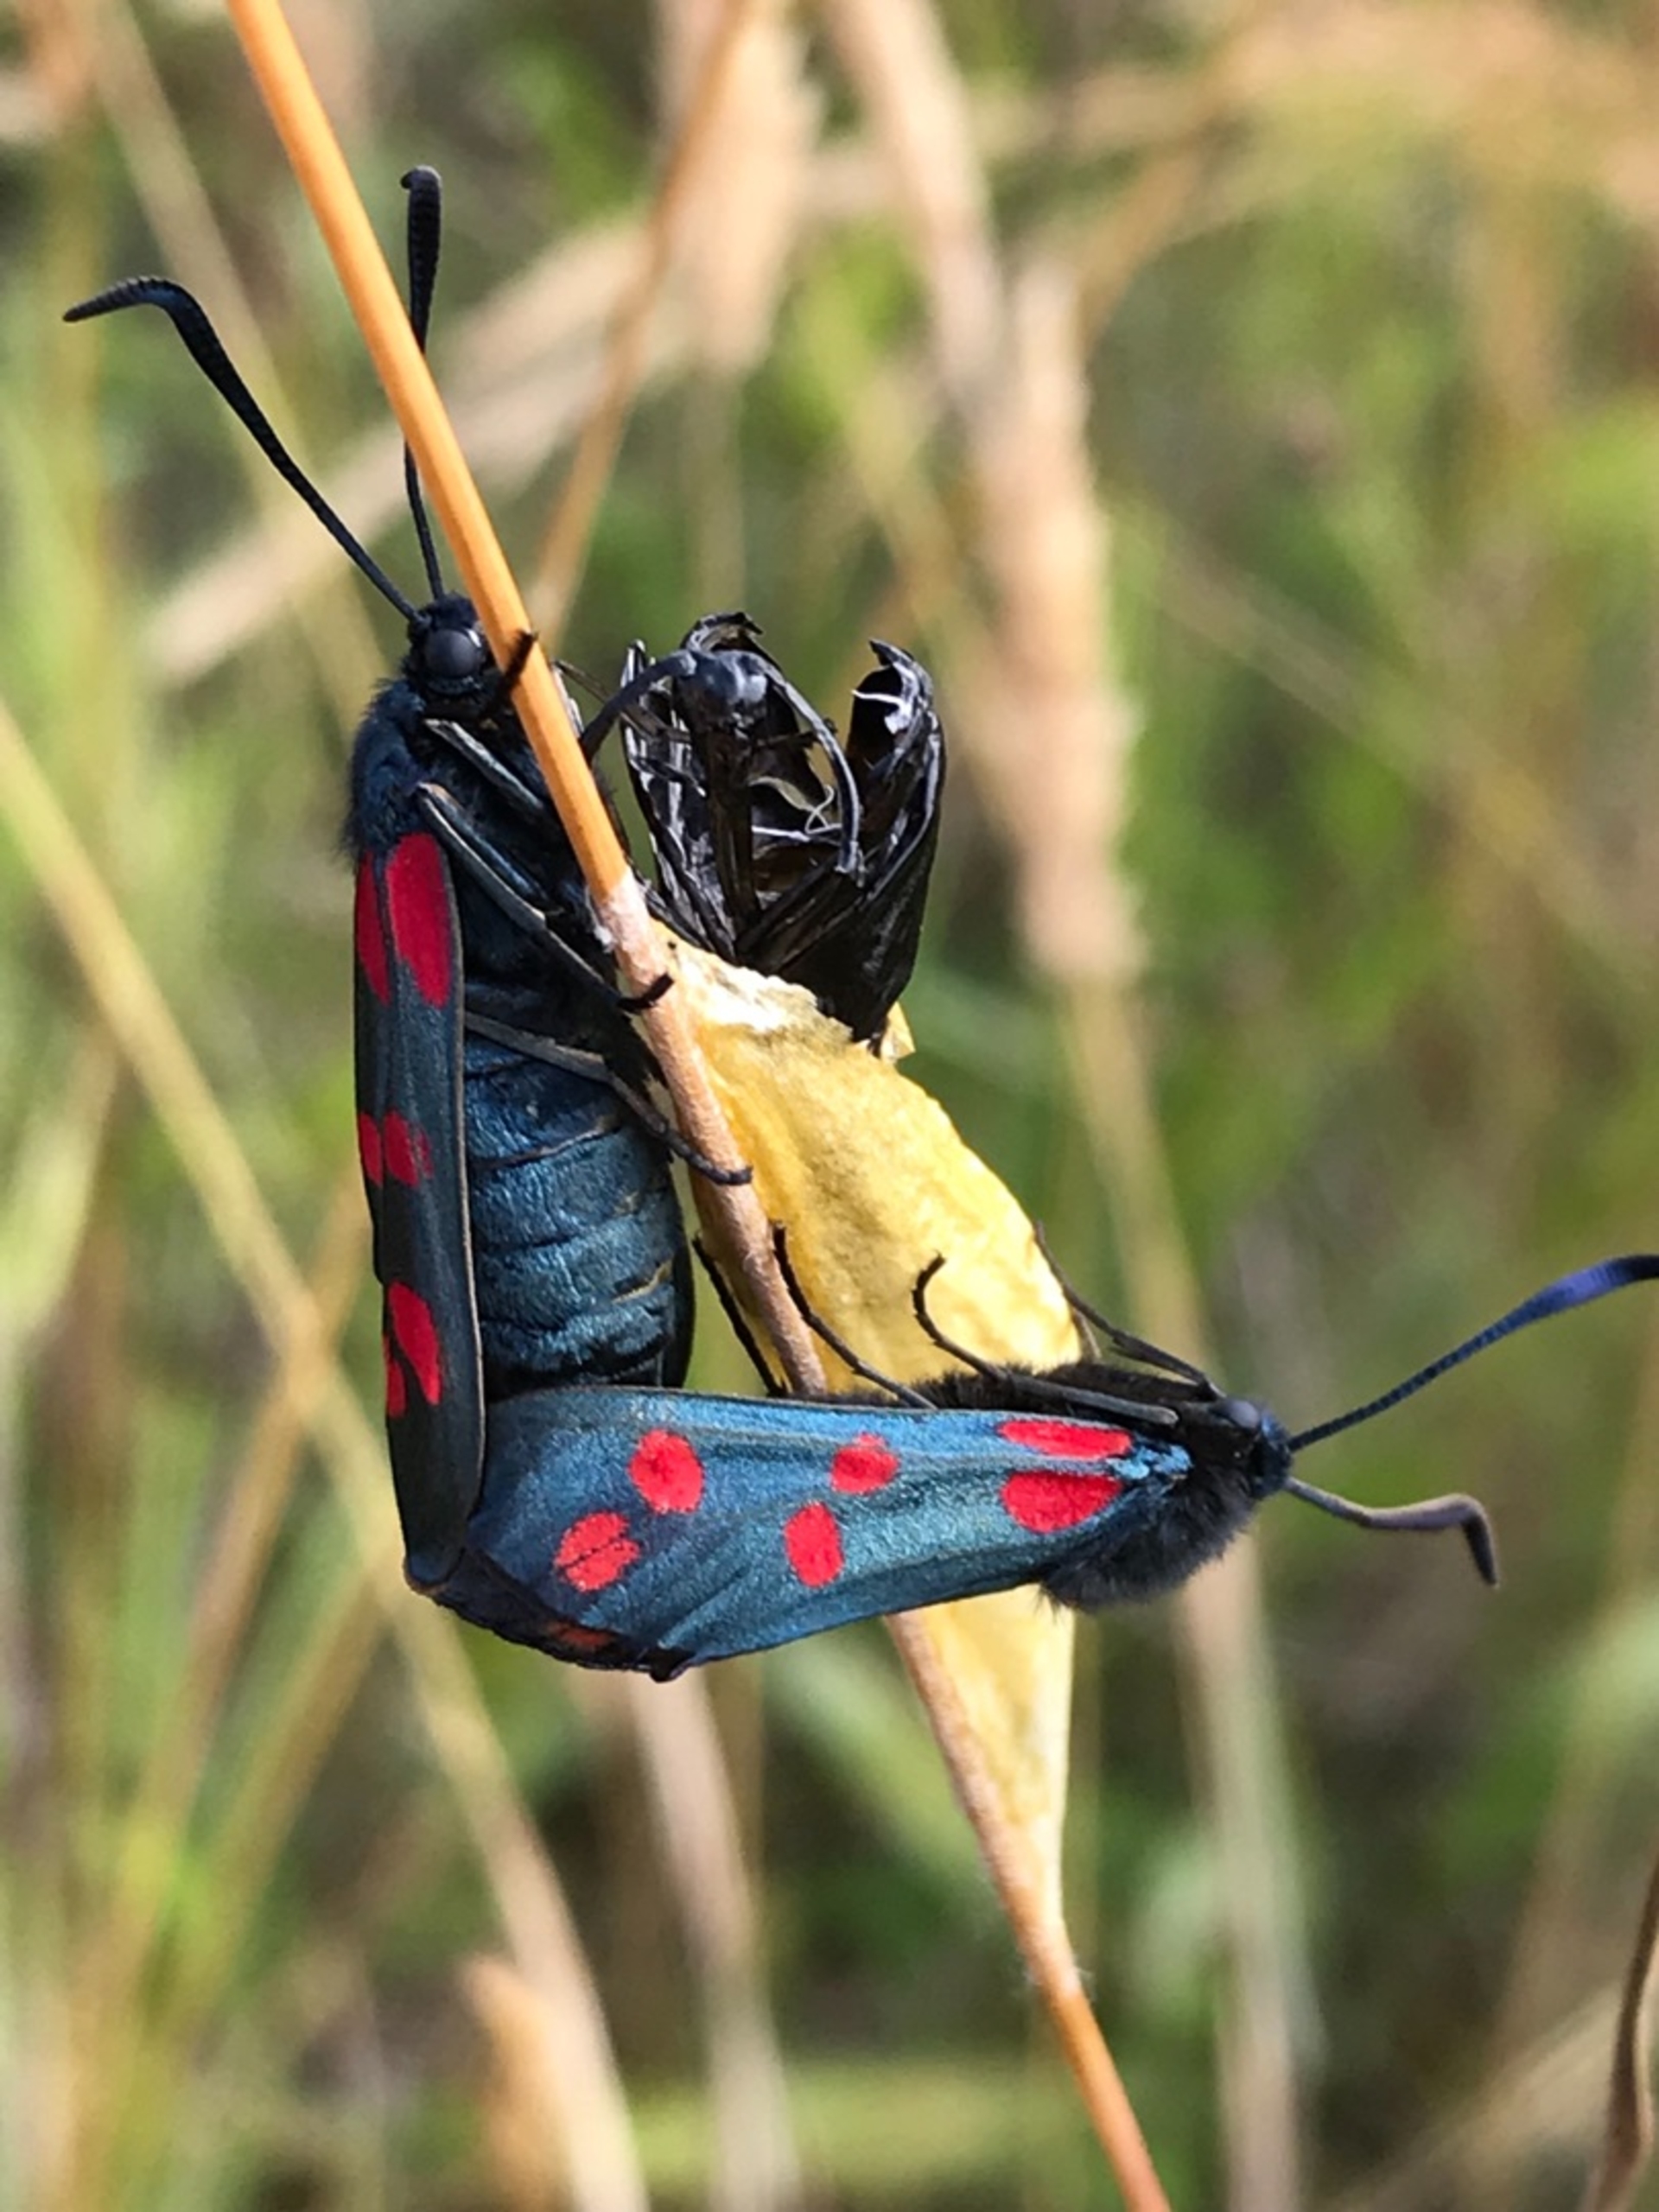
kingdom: Animalia
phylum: Arthropoda
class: Insecta
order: Lepidoptera
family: Zygaenidae
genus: Zygaena
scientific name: Zygaena filipendulae
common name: Seksplettet køllesværmer
